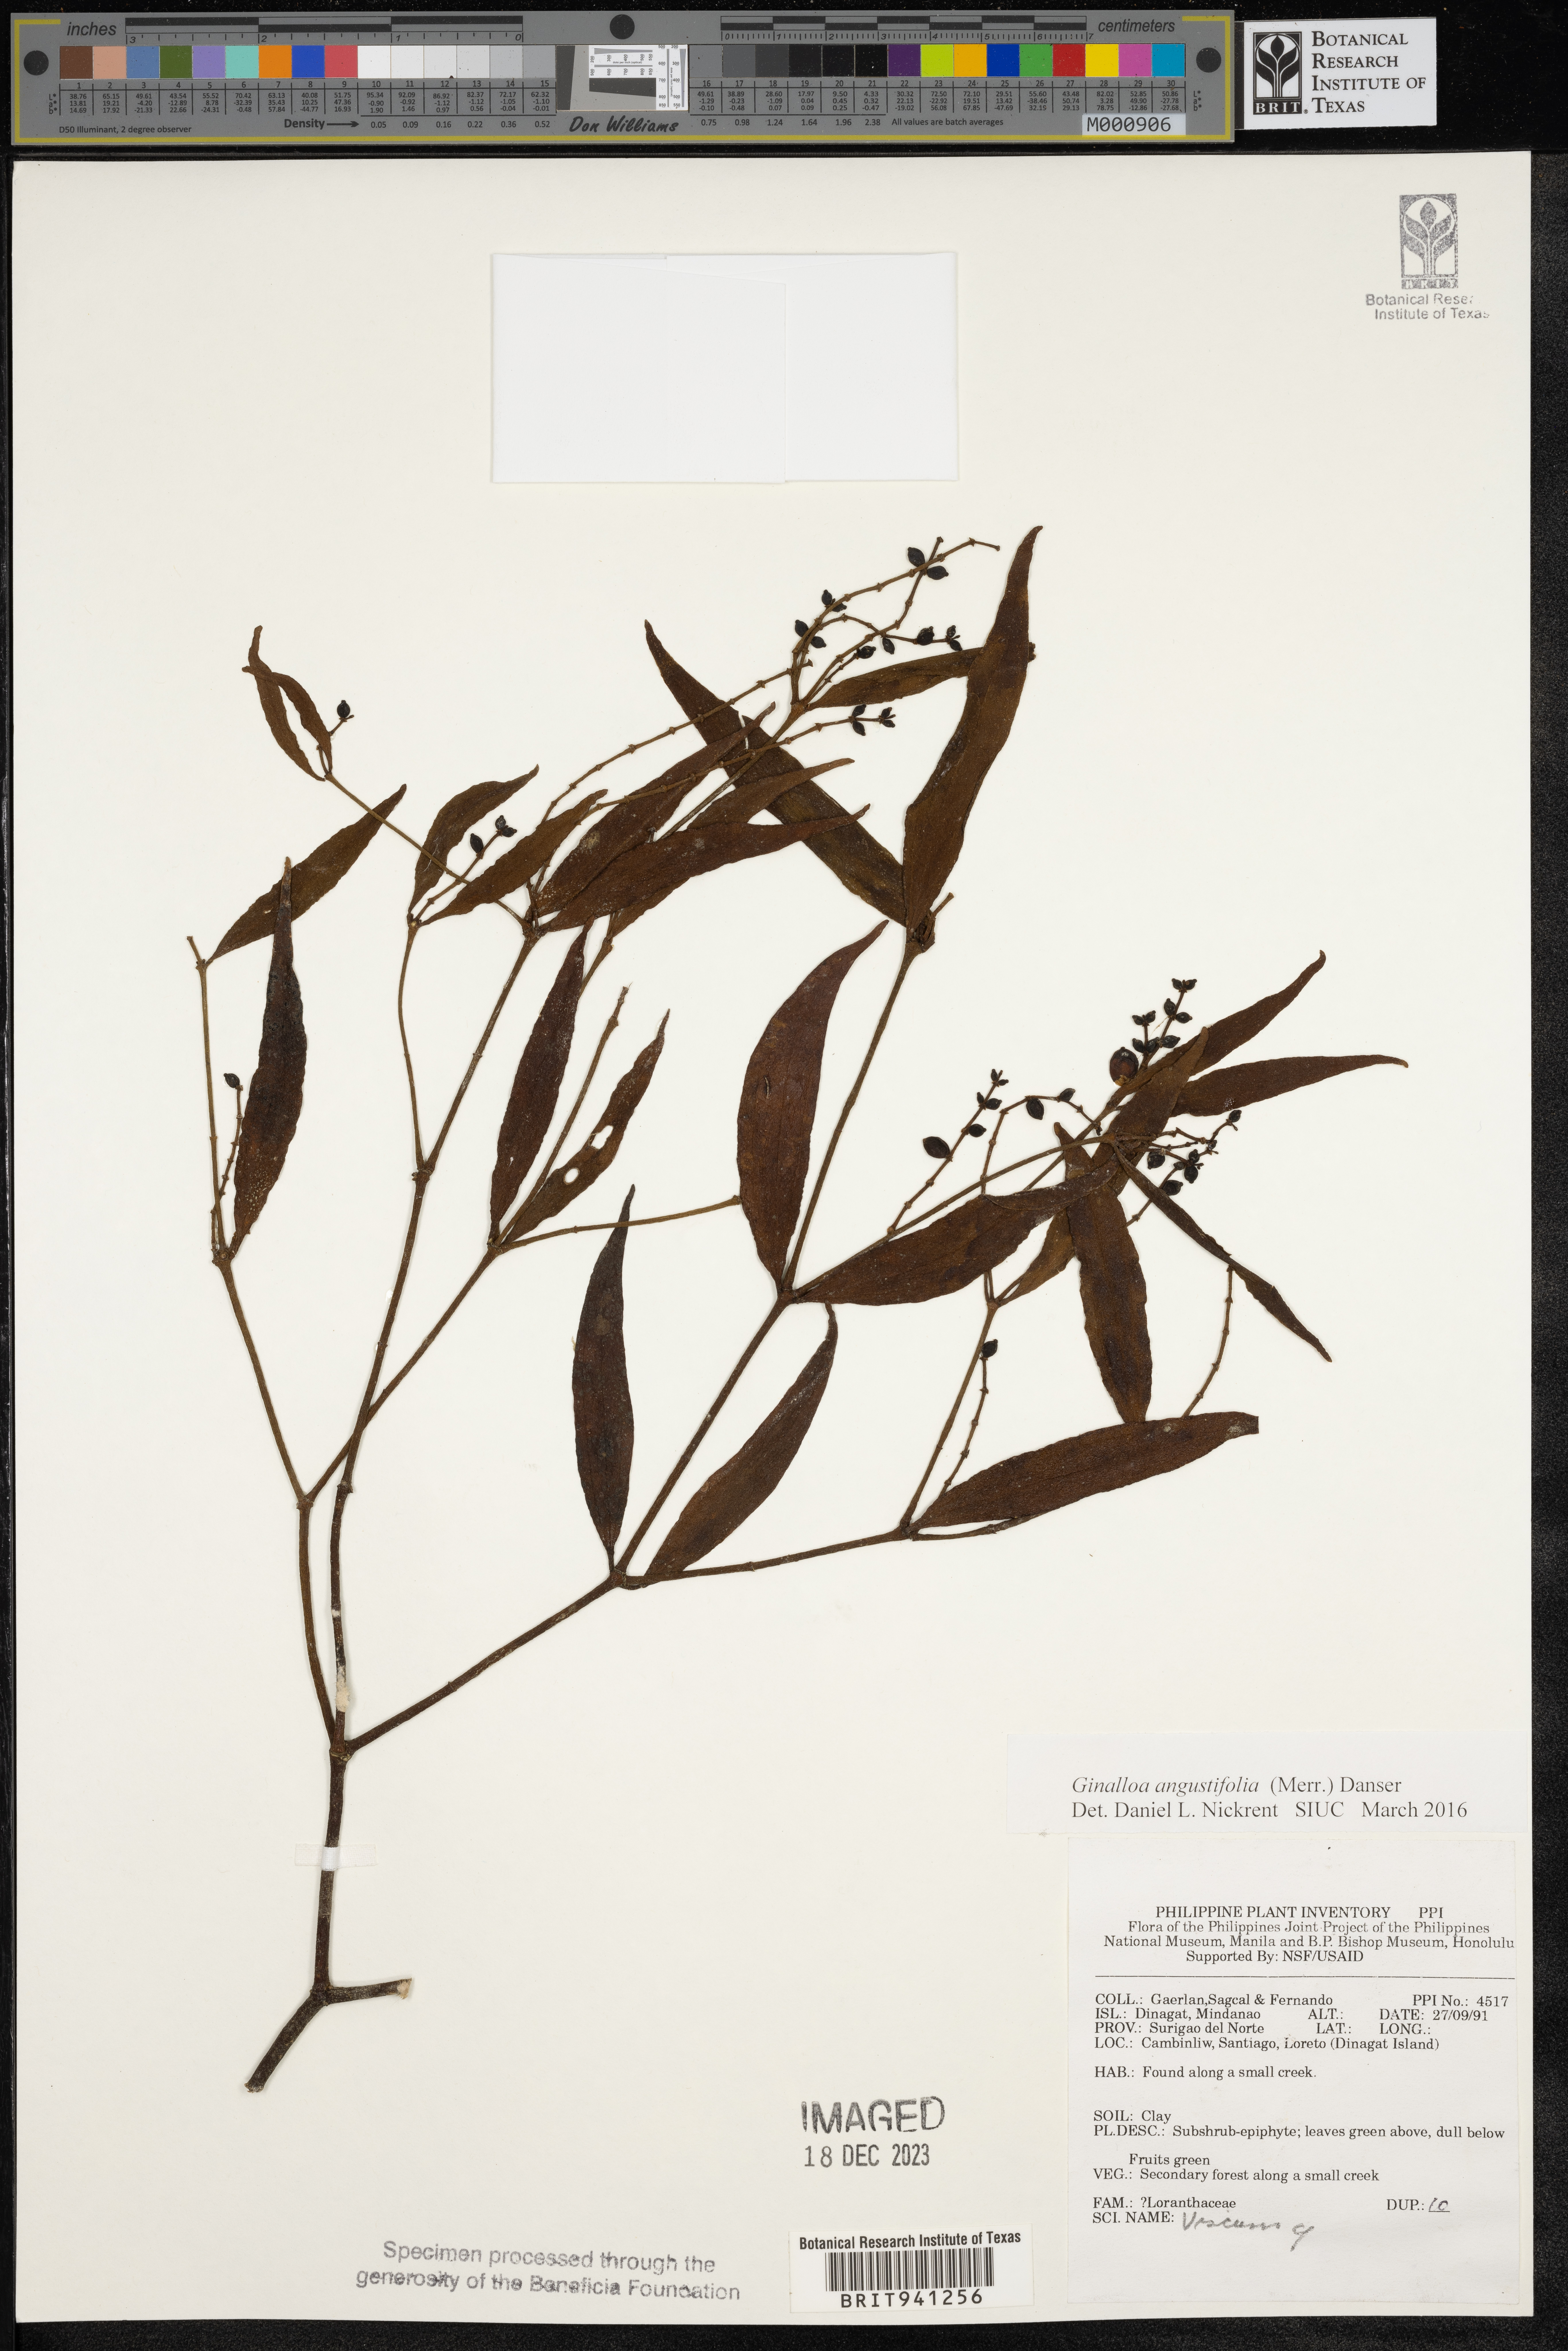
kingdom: Plantae
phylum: Tracheophyta
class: Magnoliopsida
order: Santalales
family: Viscaceae
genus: Ginalloa
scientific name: Ginalloa
